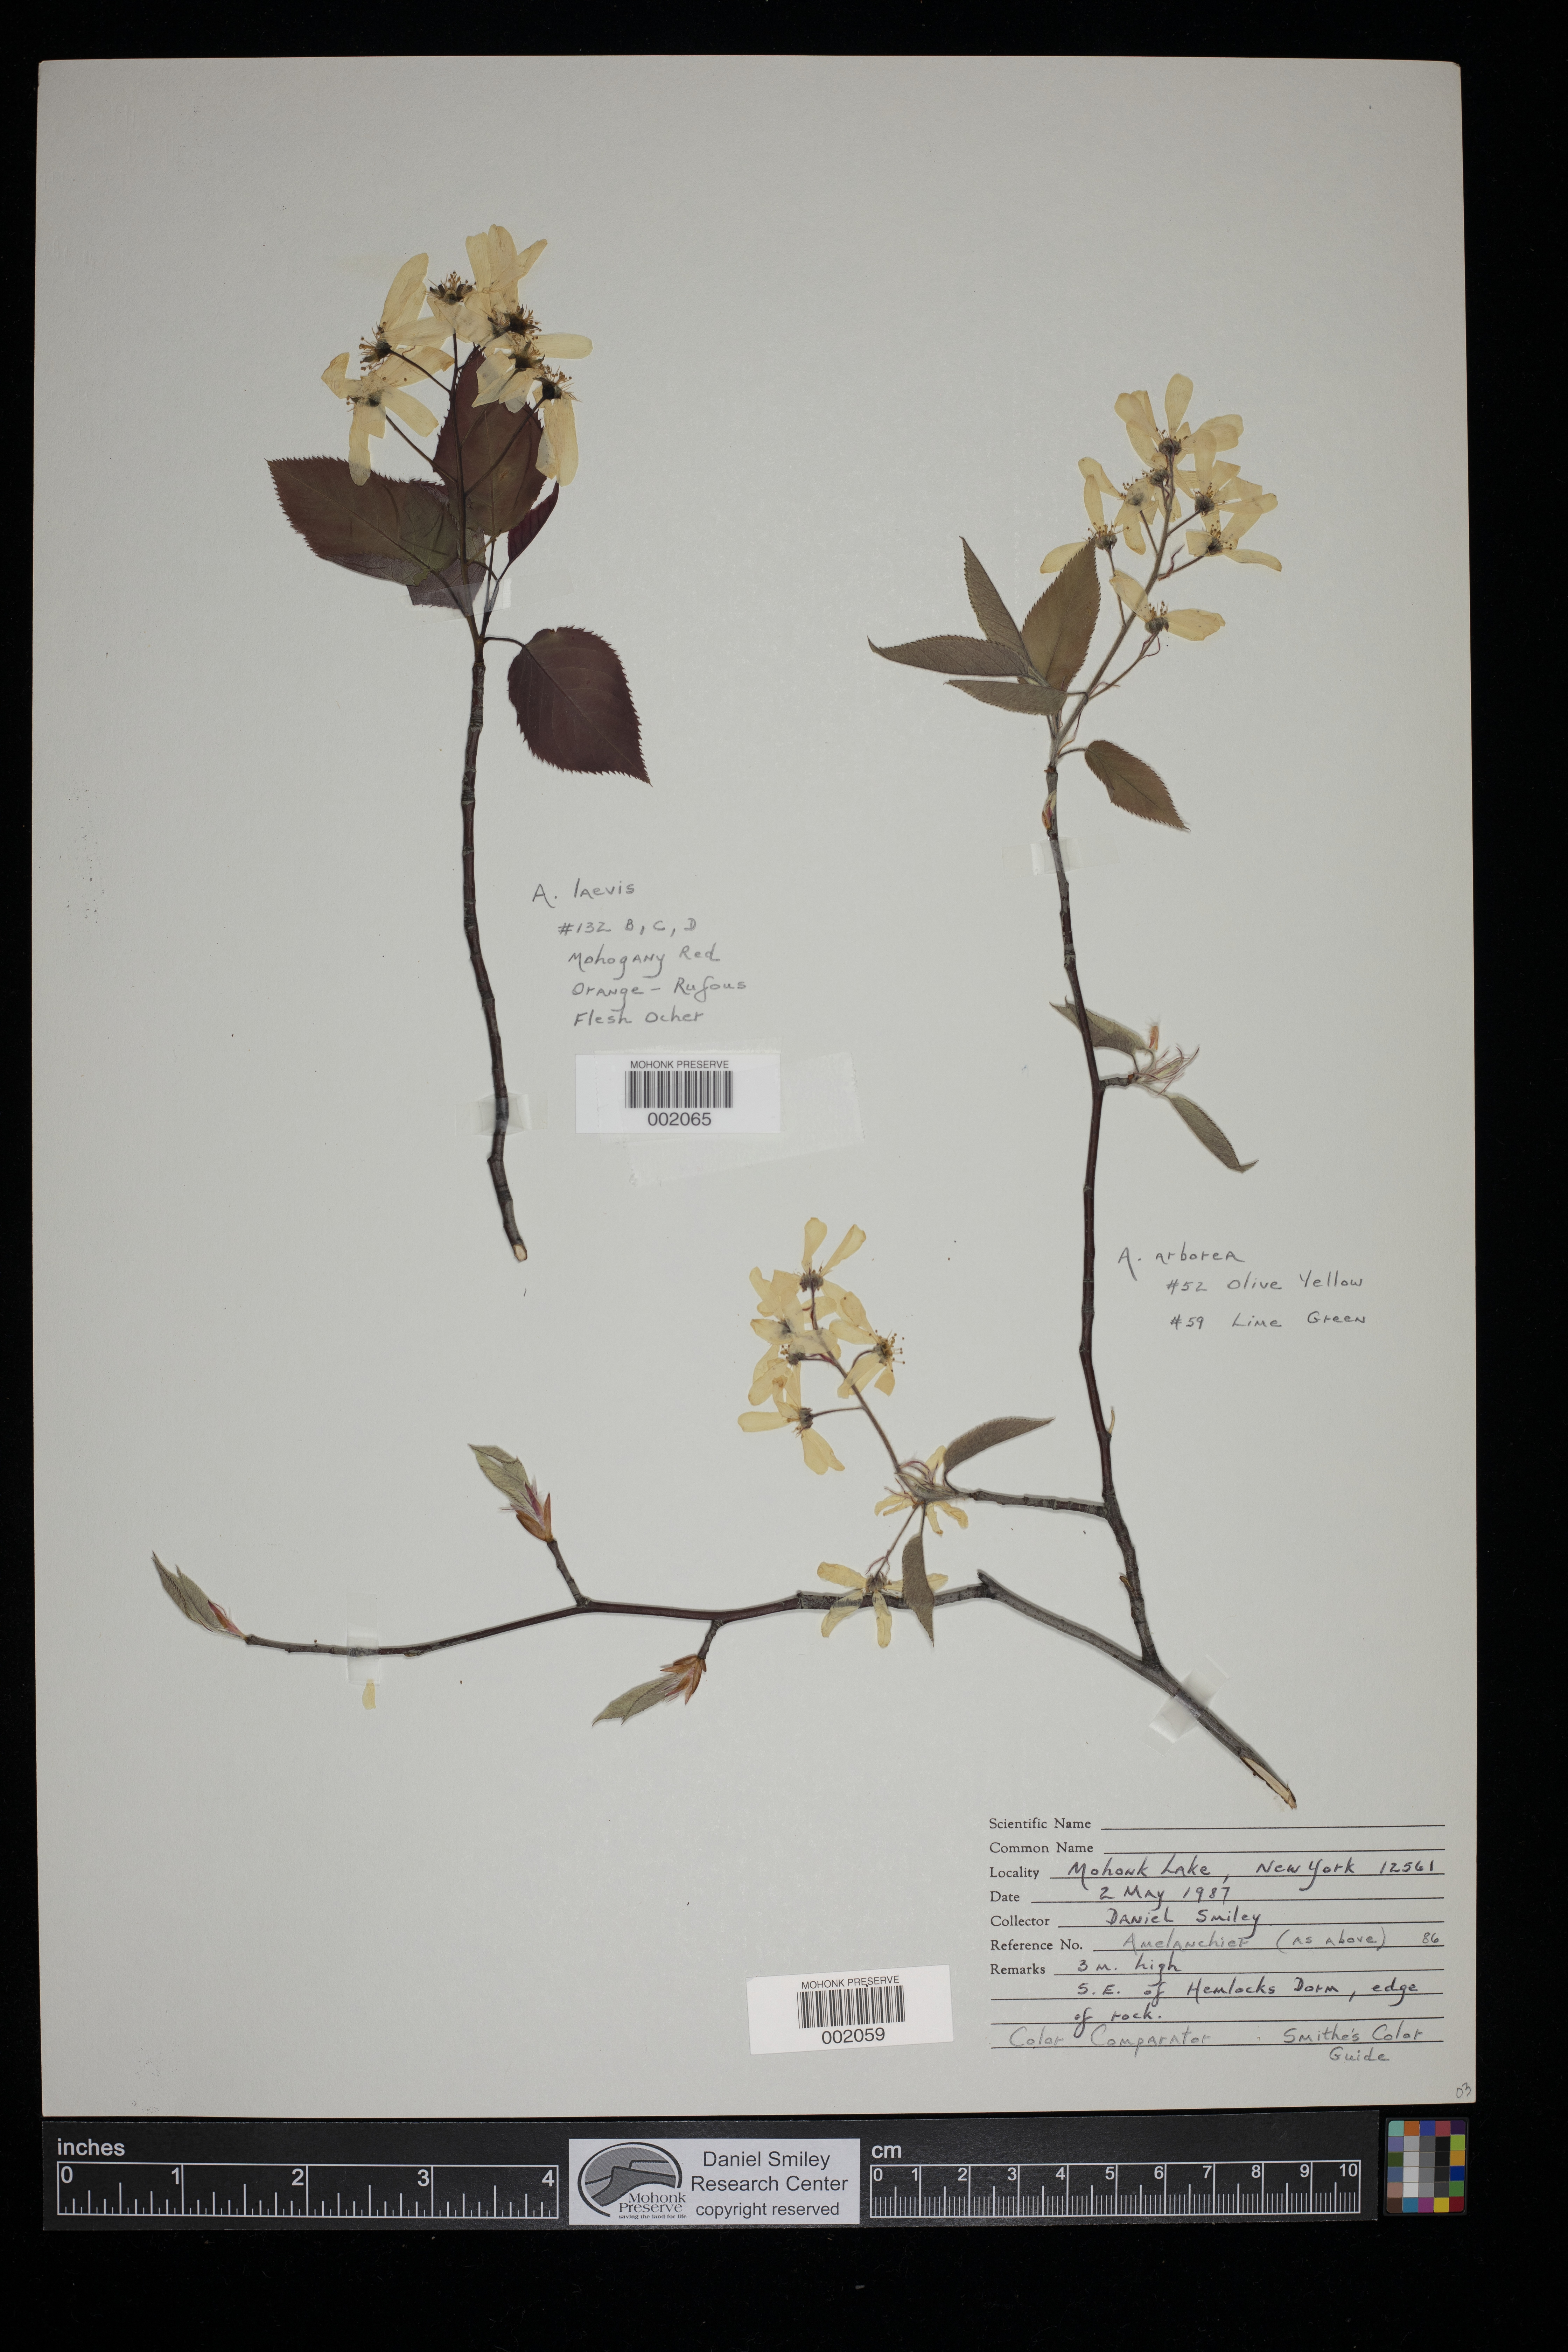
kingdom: Plantae
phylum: Tracheophyta
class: Magnoliopsida
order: Rosales
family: Rosaceae
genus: Amelanchier
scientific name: Amelanchier laevis
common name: Allegheny serviceberry
